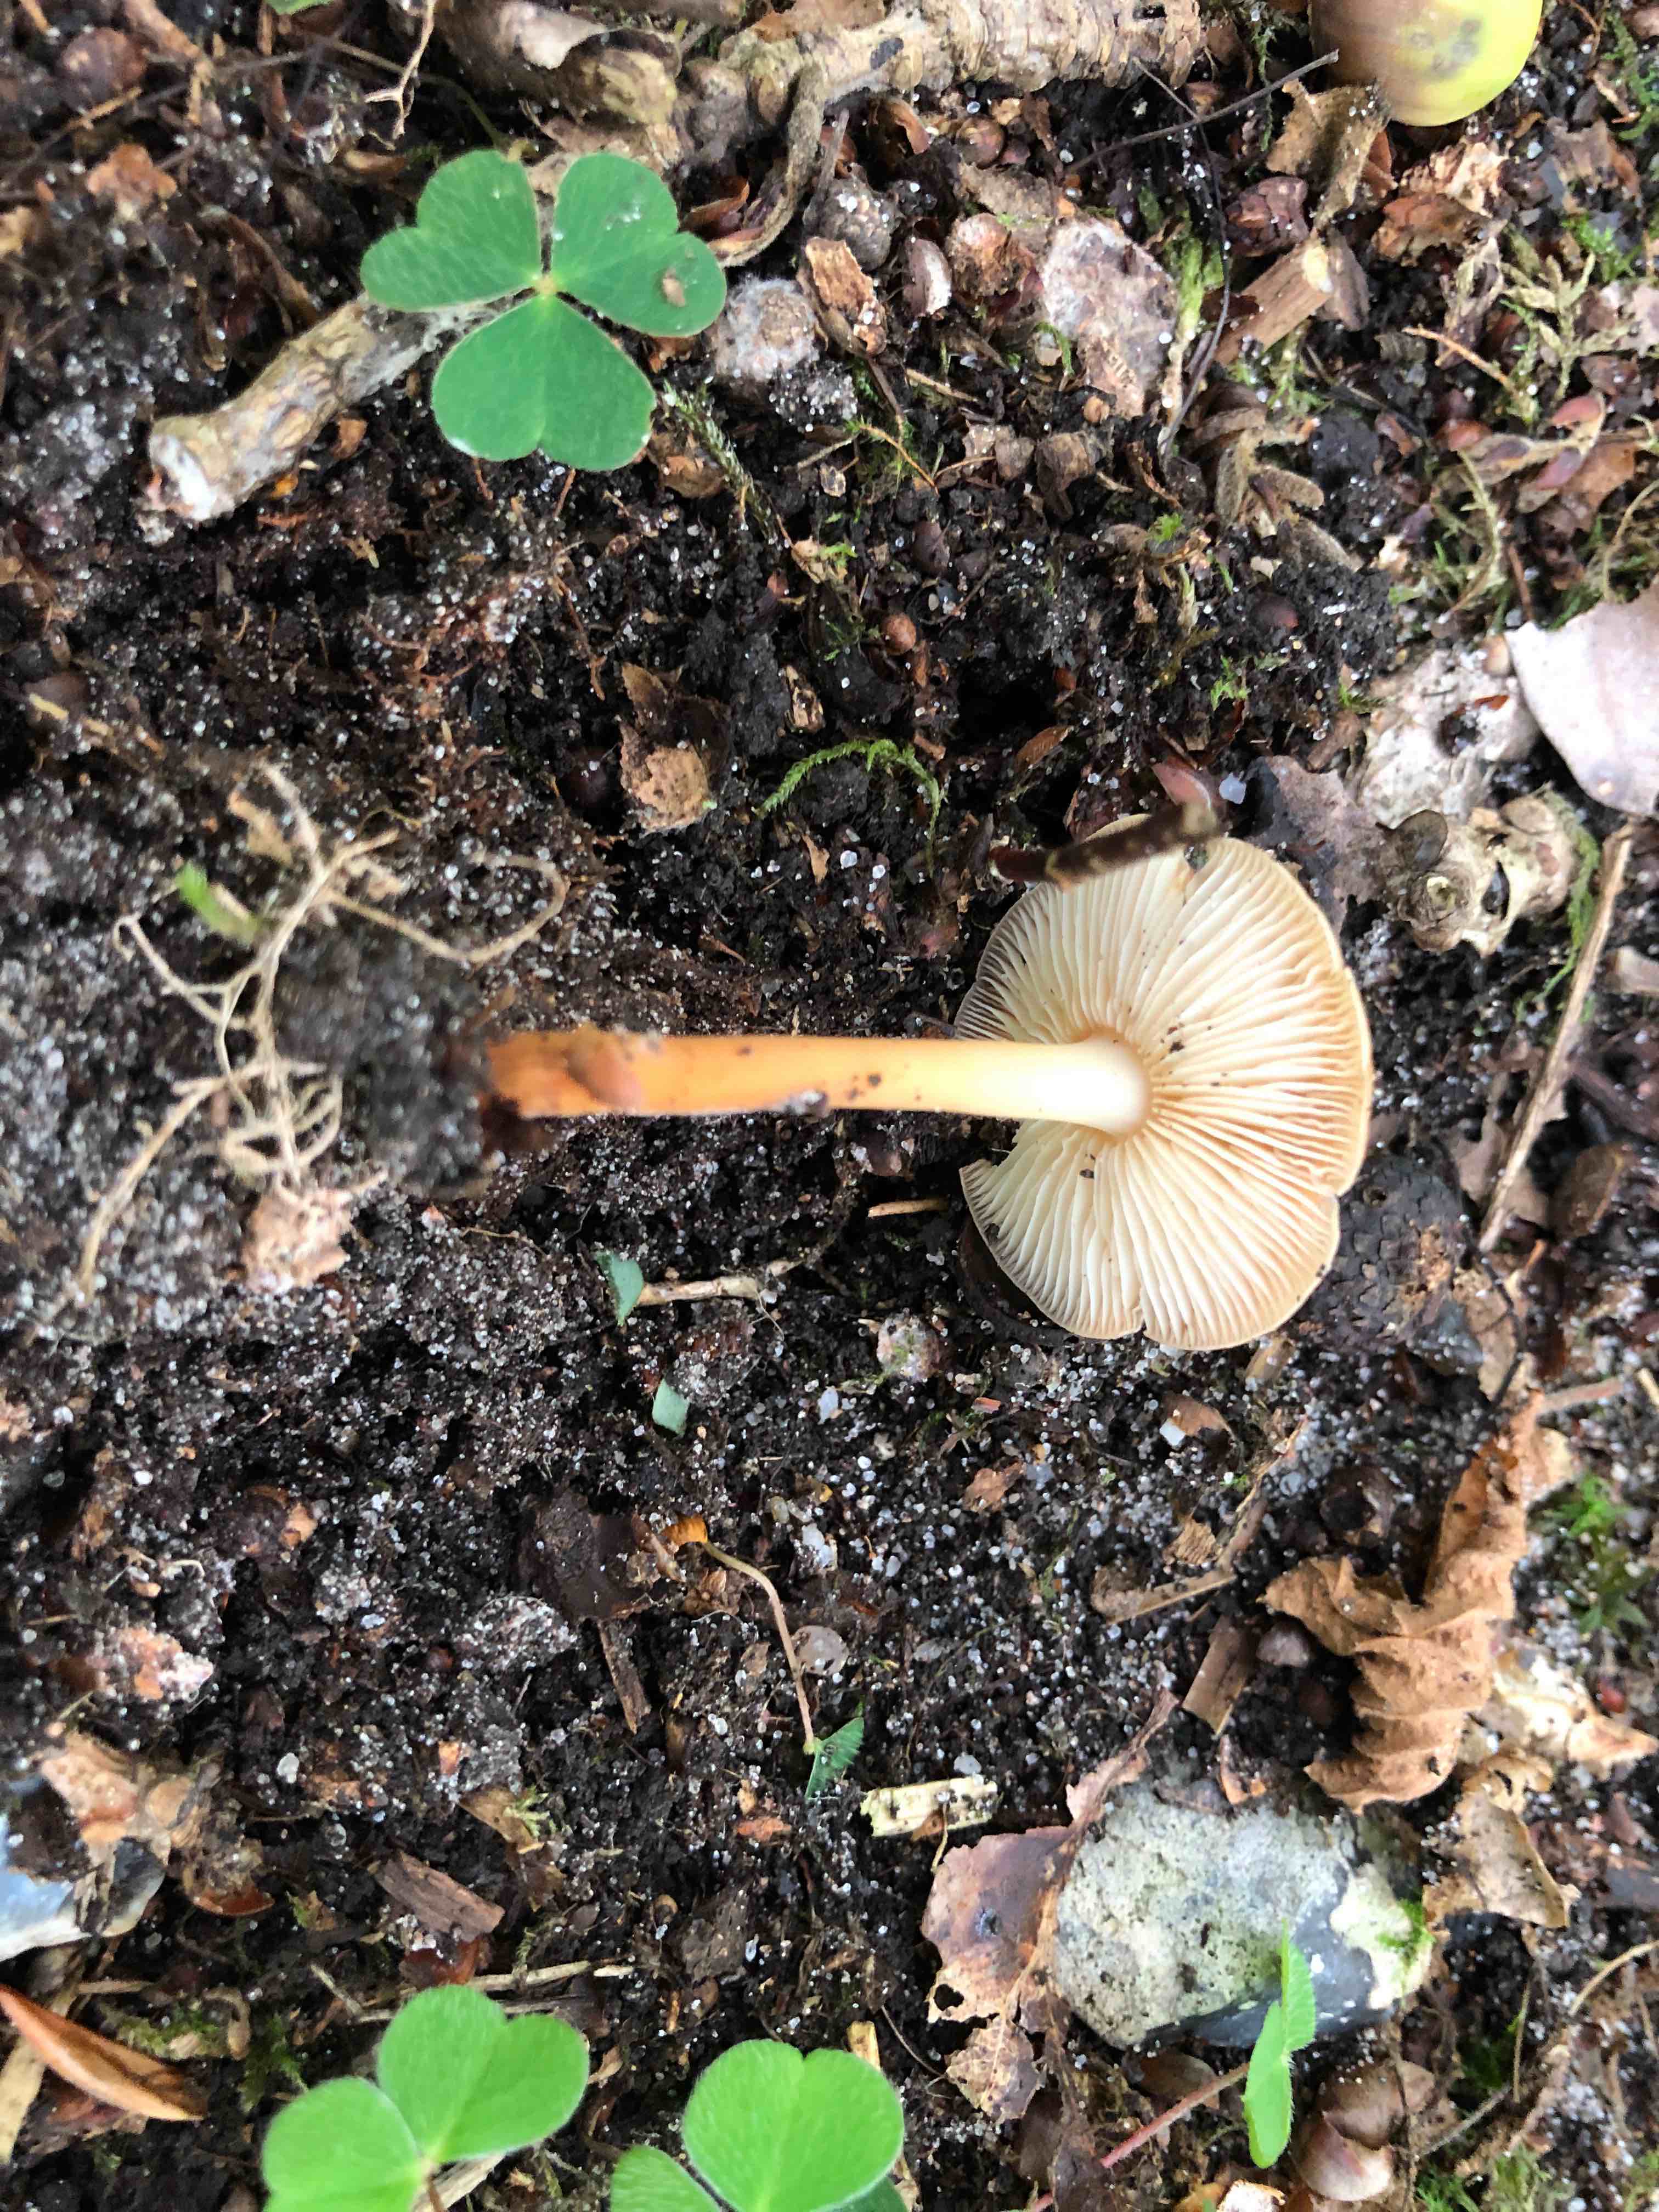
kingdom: Fungi
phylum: Basidiomycota
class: Agaricomycetes
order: Agaricales
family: Omphalotaceae
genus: Gymnopus
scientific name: Gymnopus
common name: fladhat
